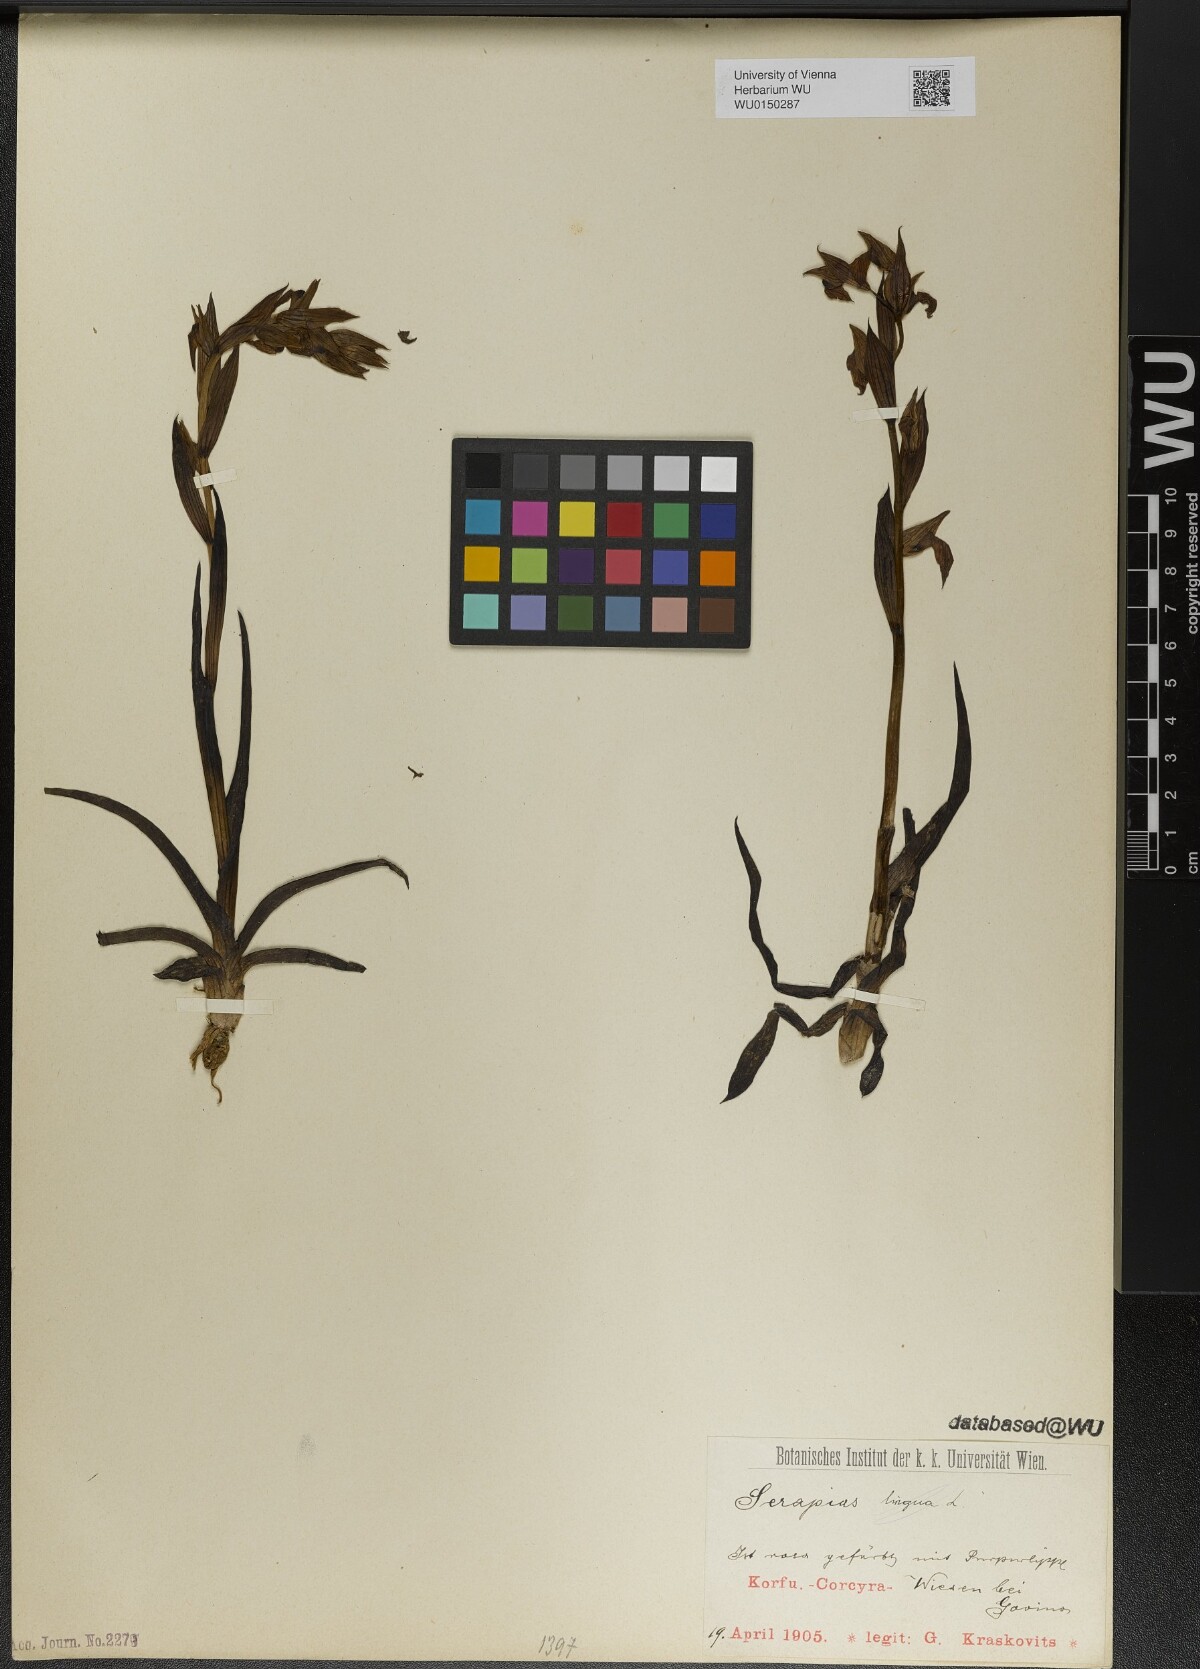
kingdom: Plantae
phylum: Tracheophyta
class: Liliopsida
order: Asparagales
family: Orchidaceae
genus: Serapias
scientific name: Serapias
